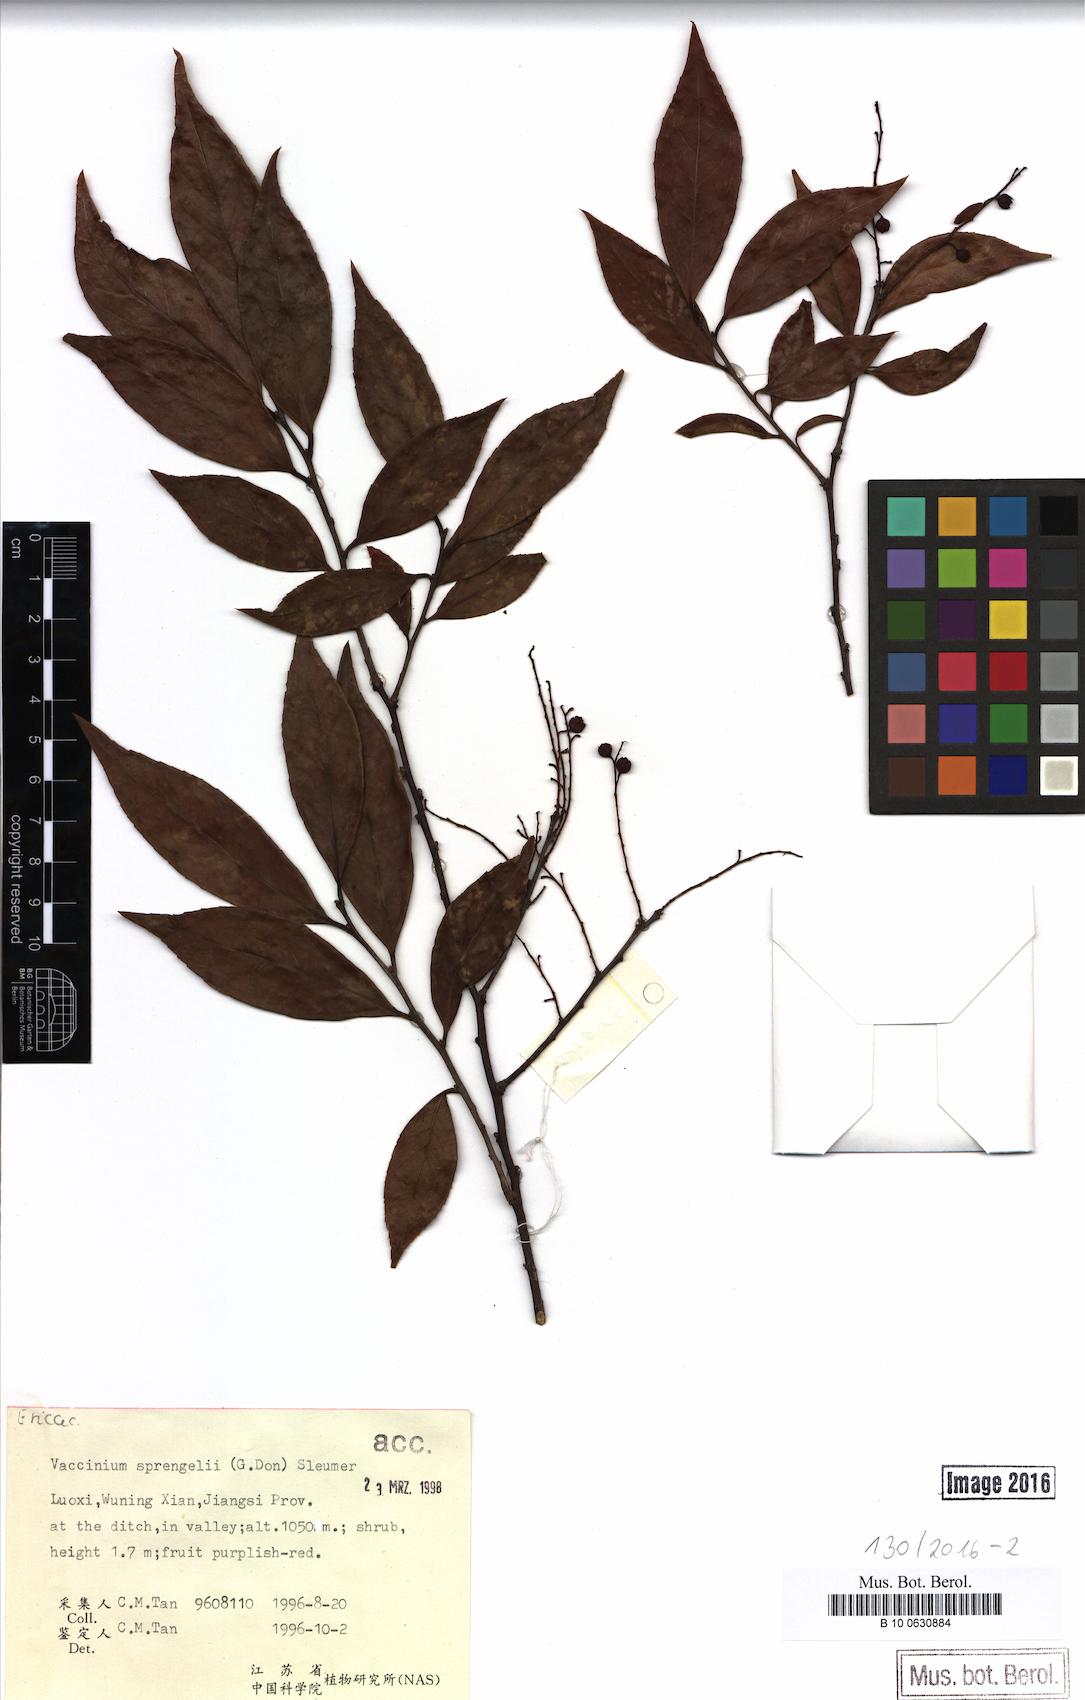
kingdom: Plantae
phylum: Tracheophyta
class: Magnoliopsida
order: Ericales
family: Ericaceae
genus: Vaccinium
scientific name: Vaccinium sprengelii
